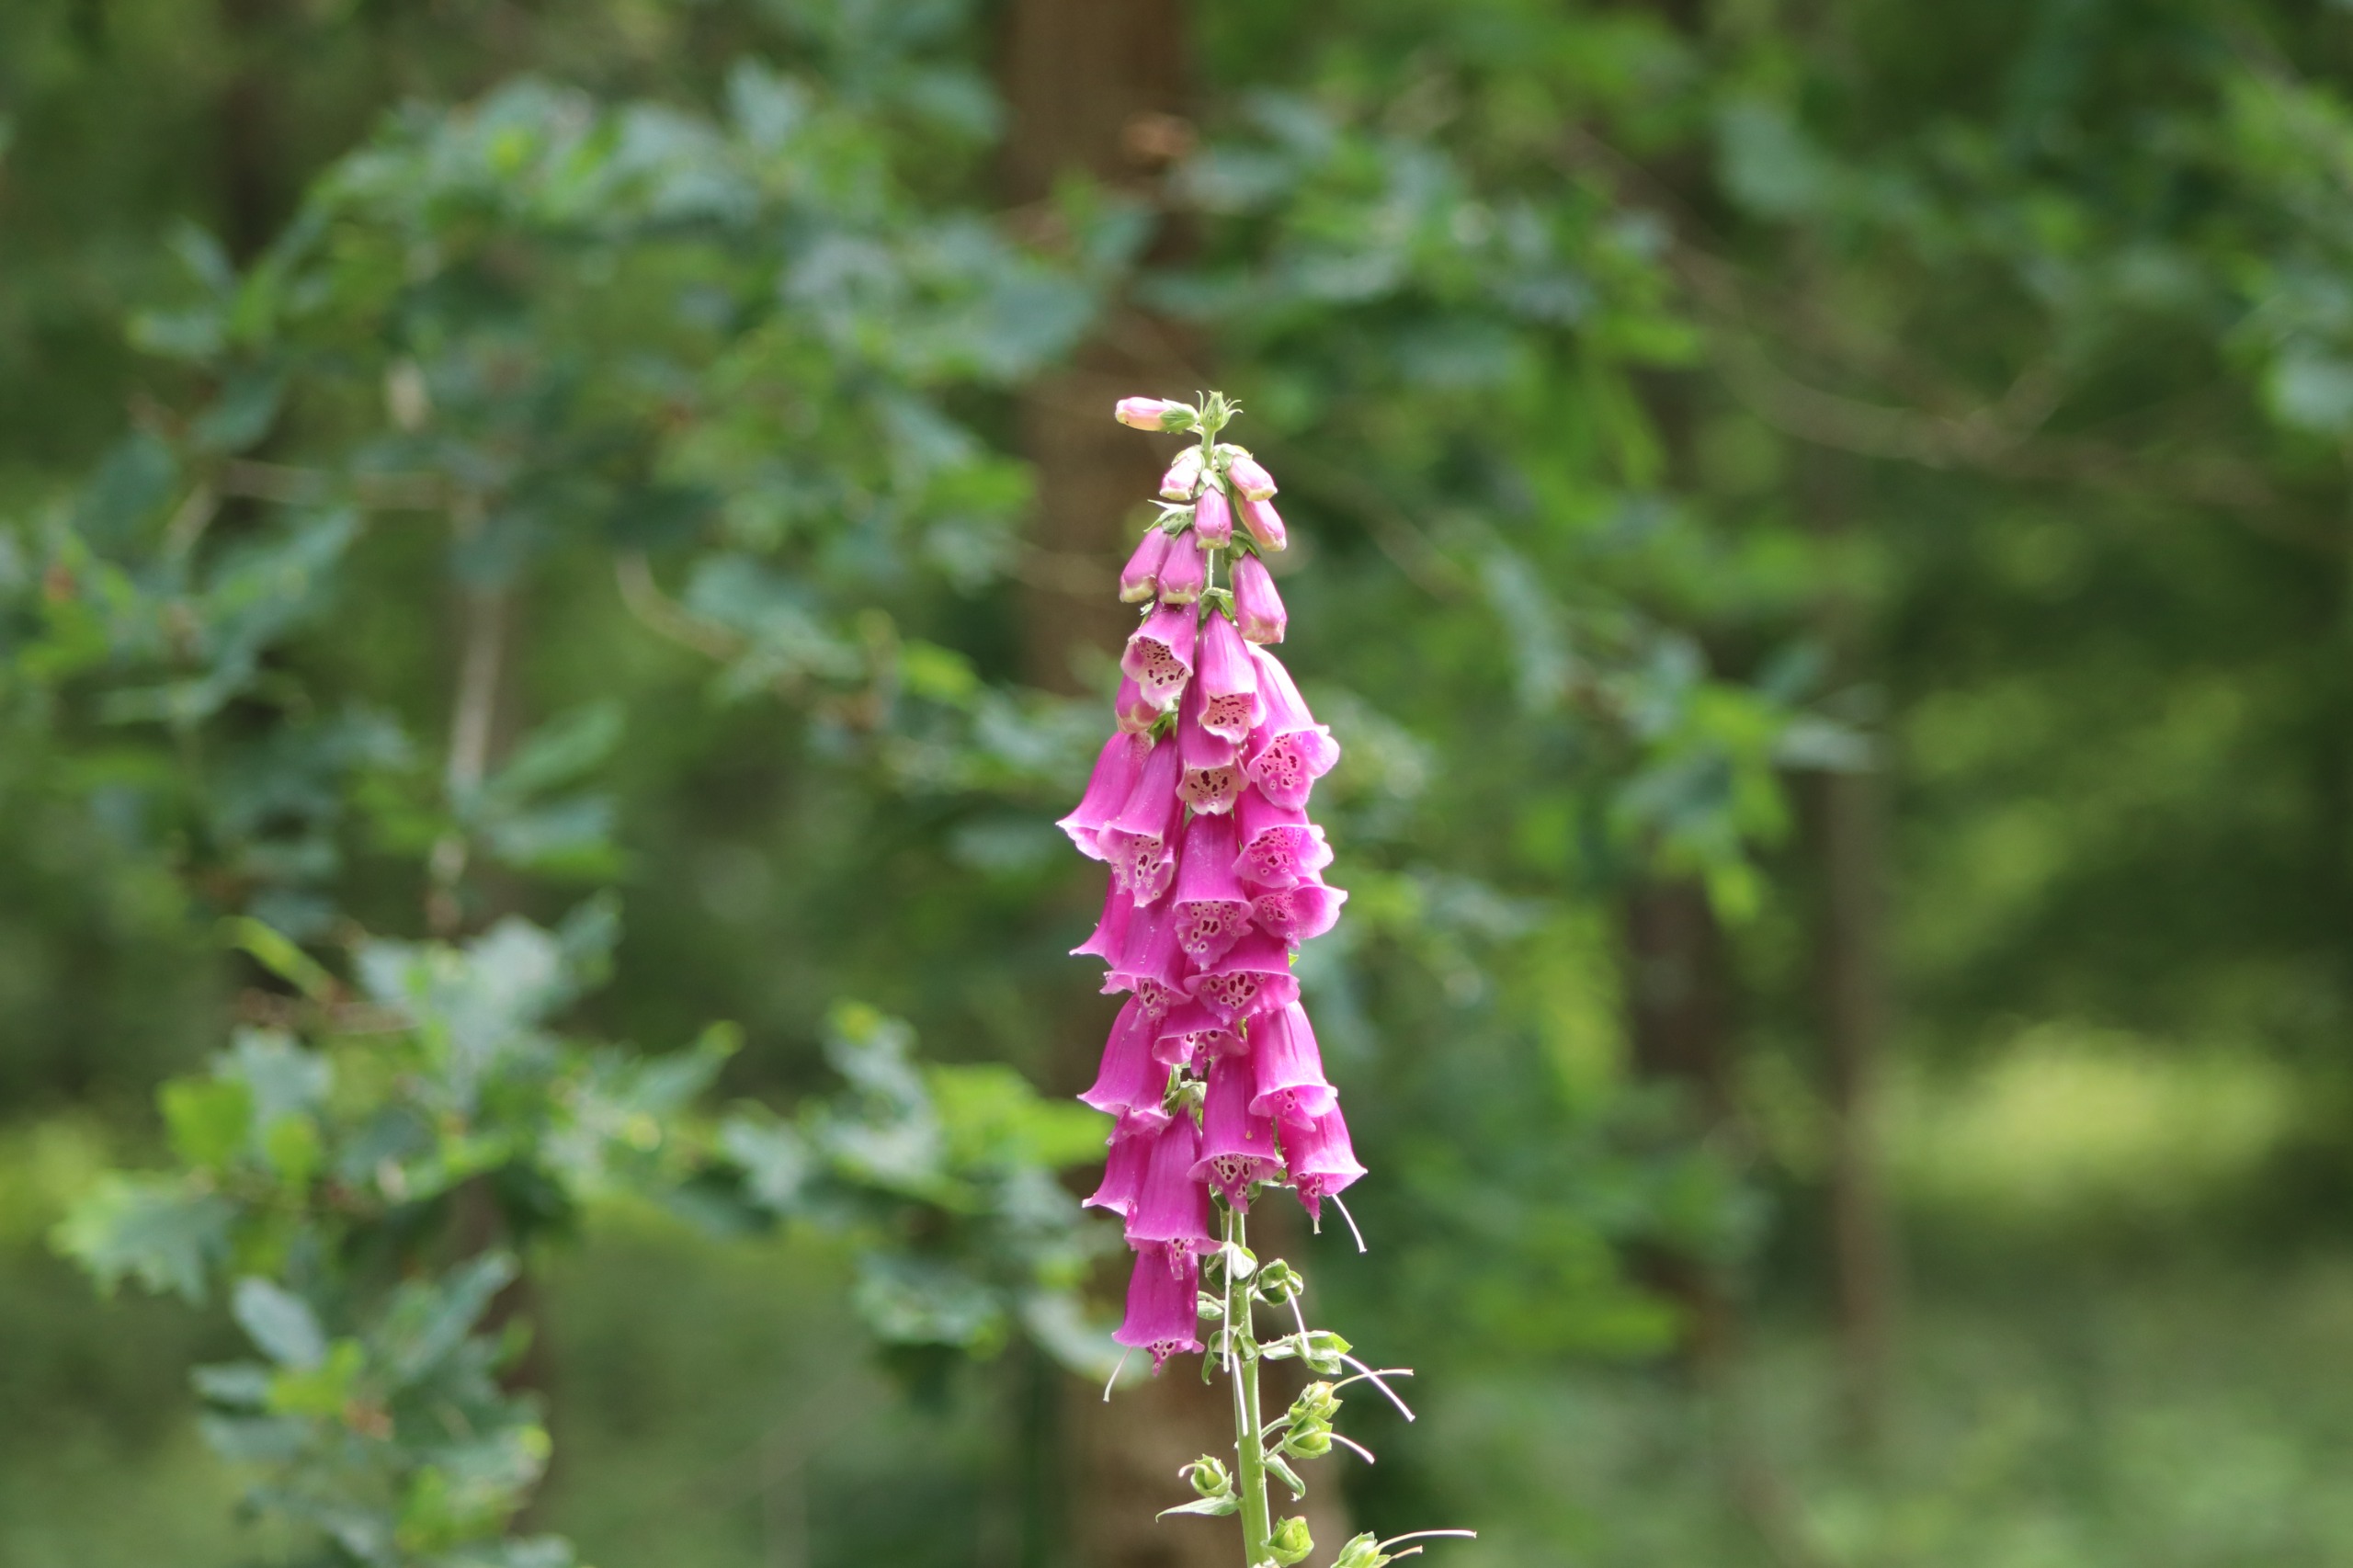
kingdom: Plantae
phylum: Tracheophyta
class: Magnoliopsida
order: Lamiales
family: Plantaginaceae
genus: Digitalis
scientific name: Digitalis purpurea
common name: Almindelig fingerbøl
